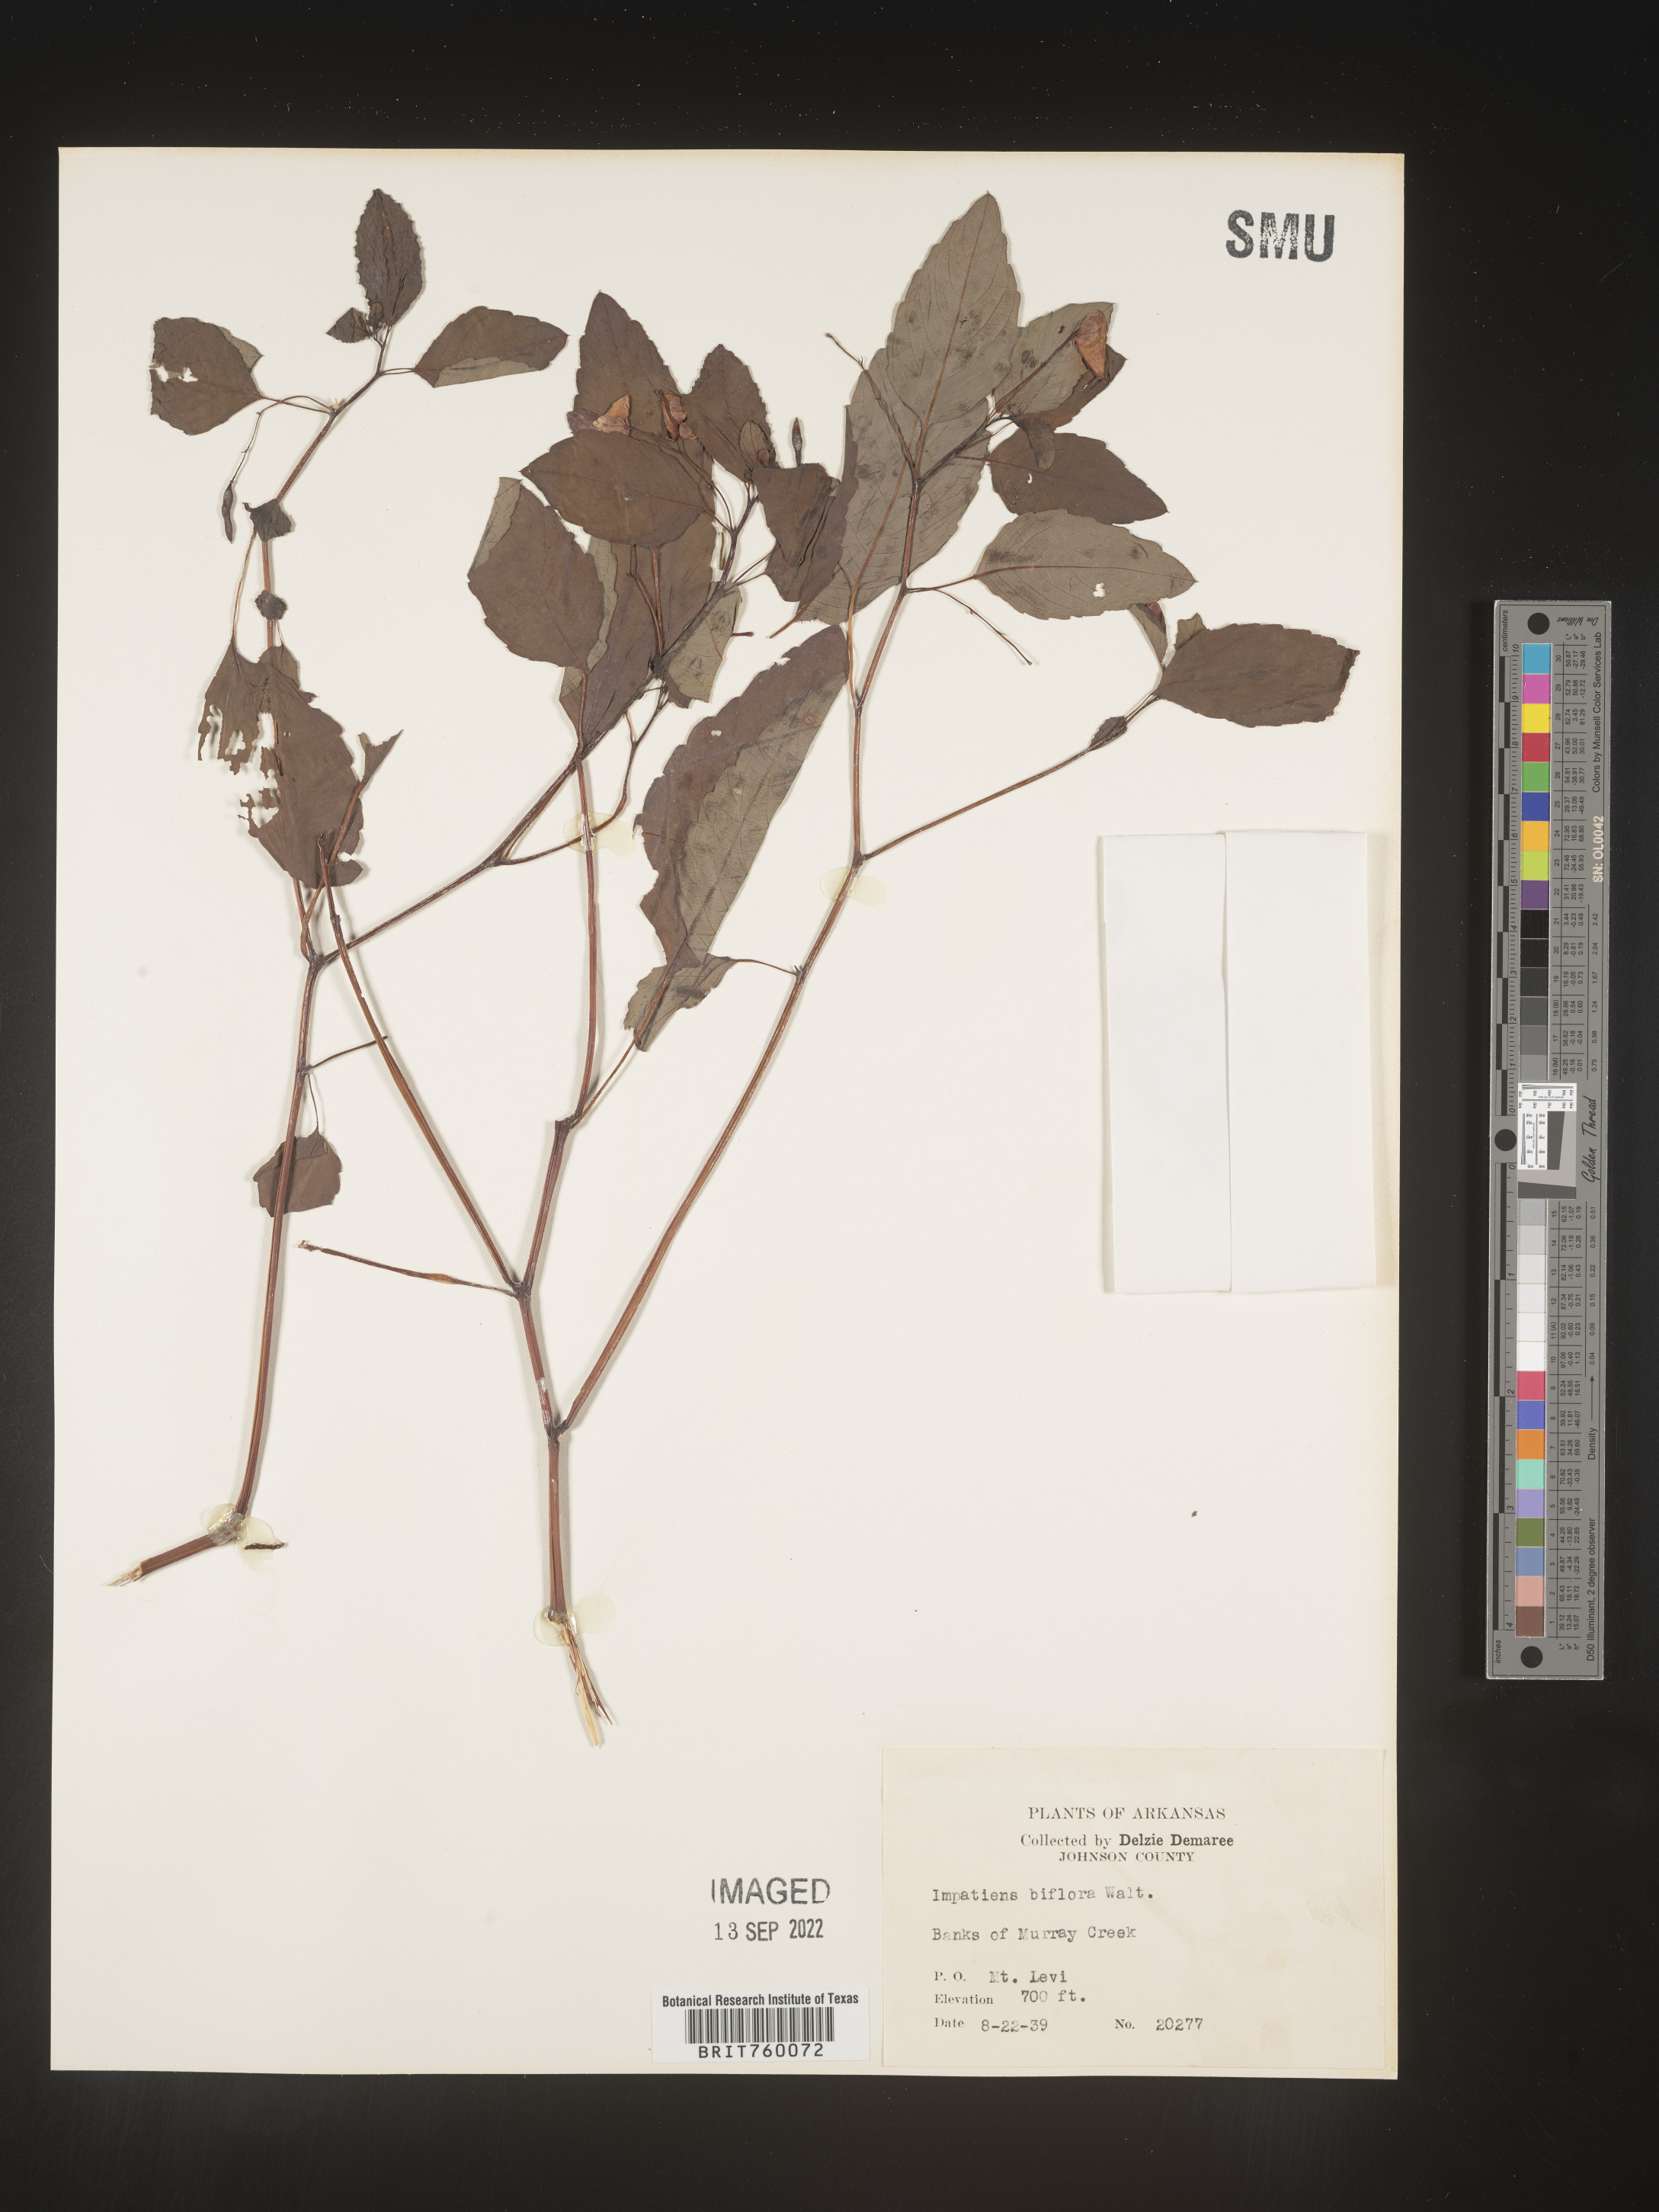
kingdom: Plantae
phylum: Tracheophyta
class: Magnoliopsida
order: Ericales
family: Balsaminaceae
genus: Impatiens
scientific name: Impatiens capensis
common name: Orange balsam
